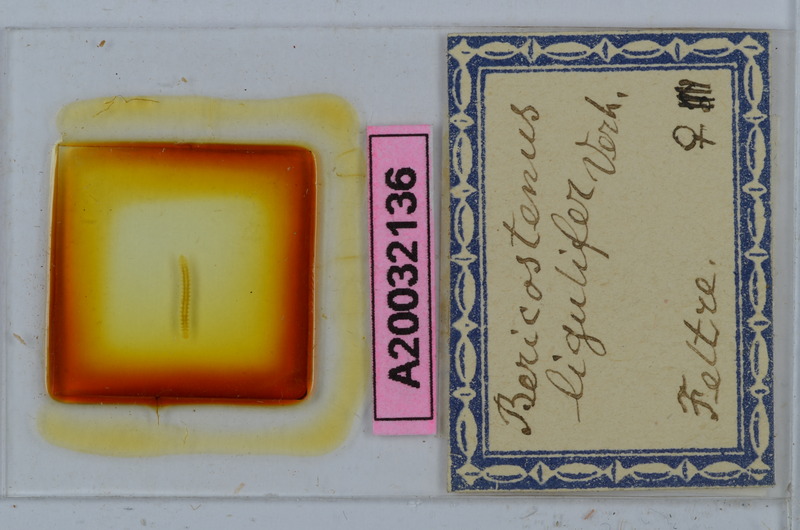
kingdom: Animalia
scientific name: Animalia
